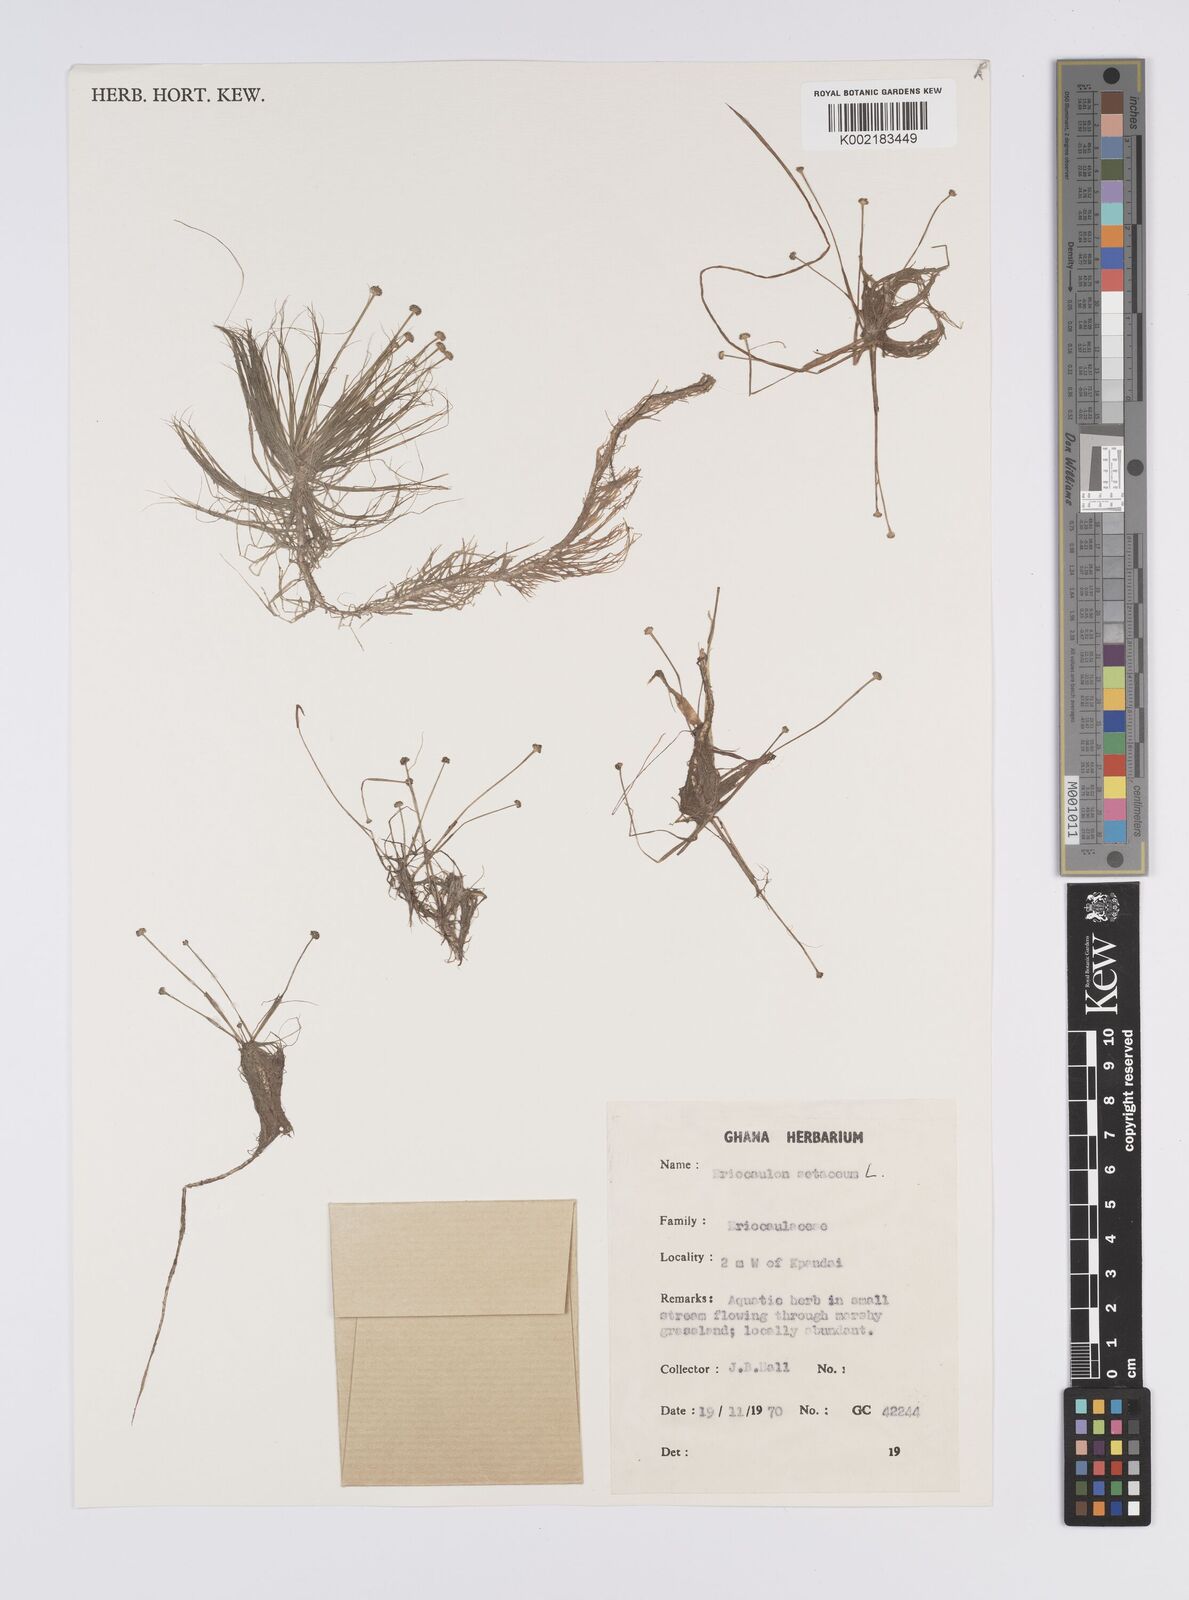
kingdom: Plantae
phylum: Tracheophyta
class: Liliopsida
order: Poales
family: Eriocaulaceae
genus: Eriocaulon
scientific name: Eriocaulon setaceum
